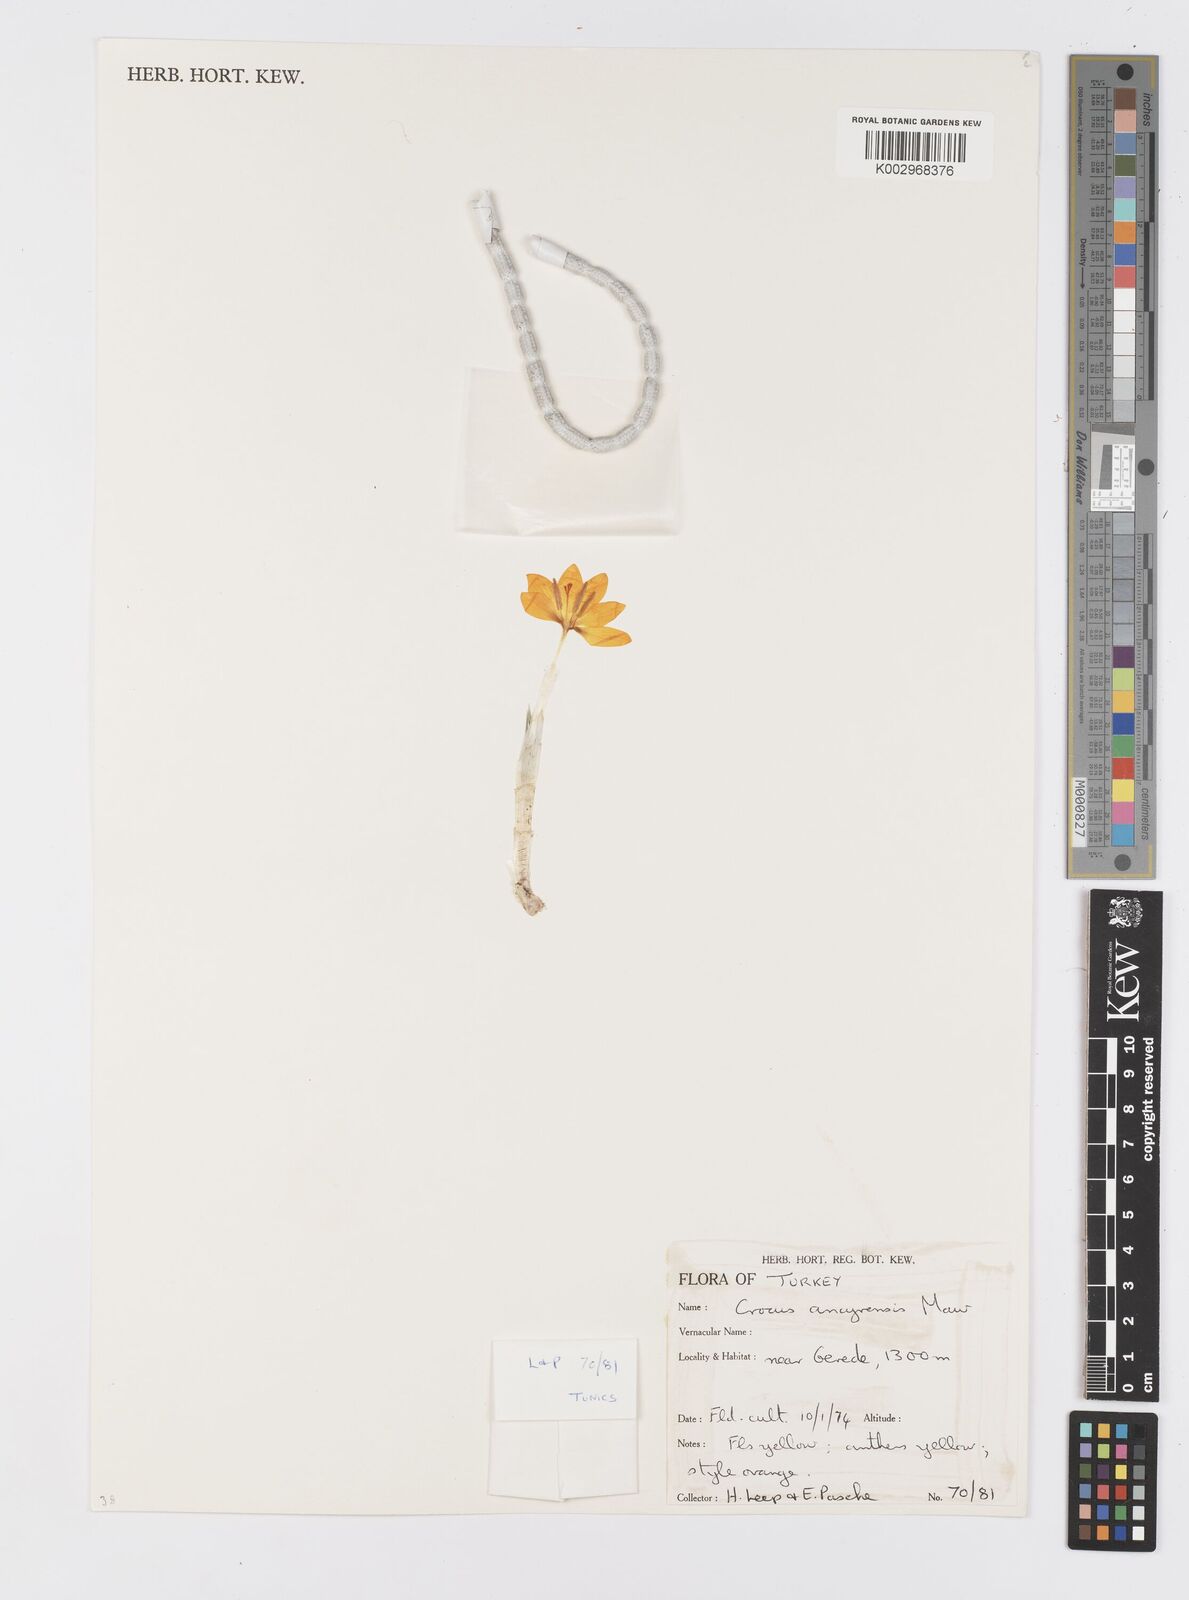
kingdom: Plantae
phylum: Tracheophyta
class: Liliopsida
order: Asparagales
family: Iridaceae
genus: Crocus
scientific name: Crocus ancyrensis
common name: Ankara crocus
